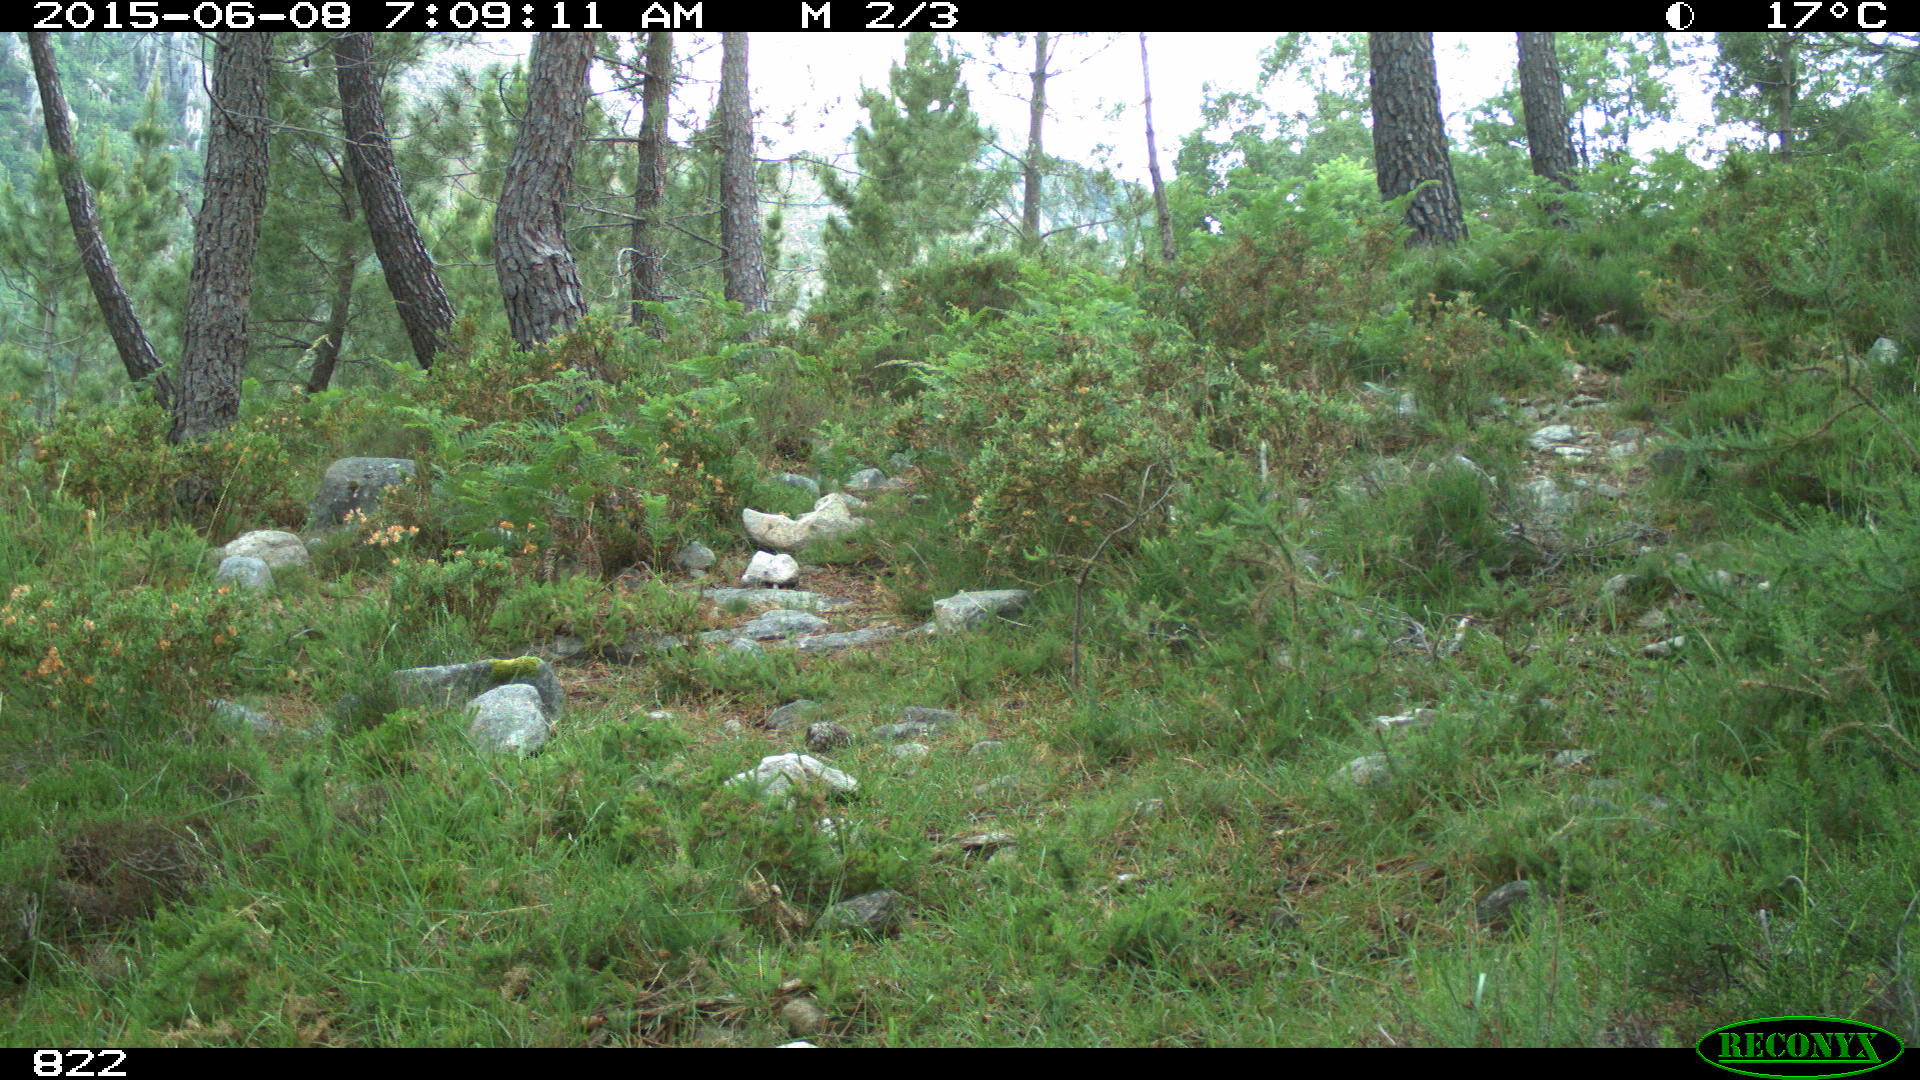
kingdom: Animalia
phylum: Chordata
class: Mammalia
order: Artiodactyla
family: Cervidae
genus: Capreolus
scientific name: Capreolus capreolus
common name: Western roe deer
